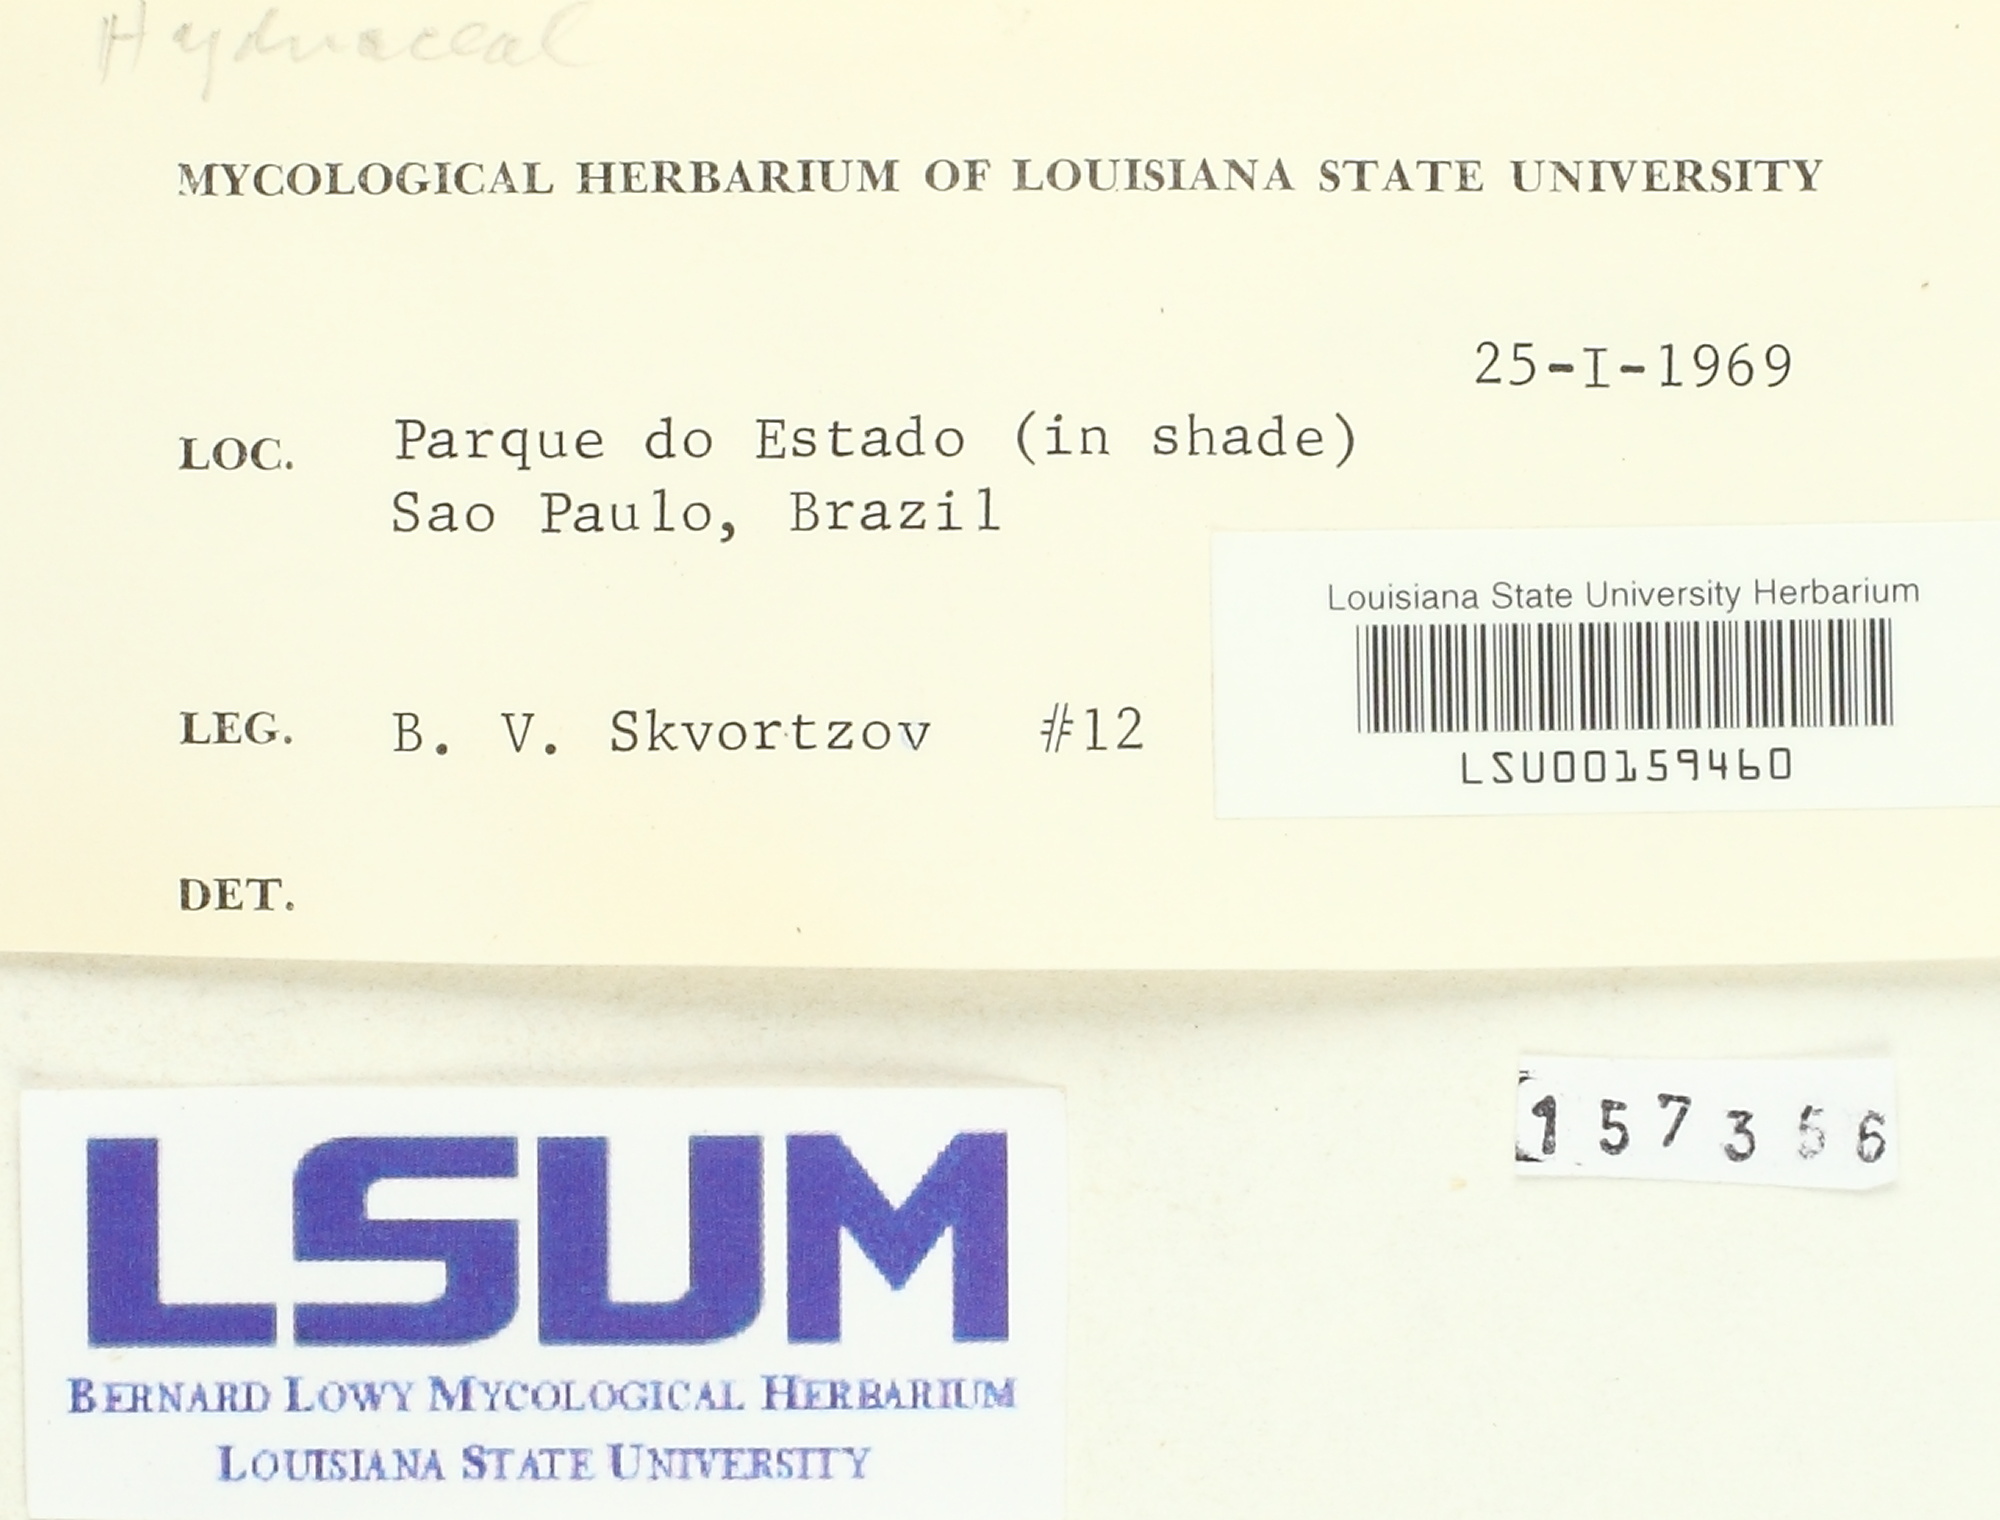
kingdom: Fungi
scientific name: Fungi
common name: Fungi
